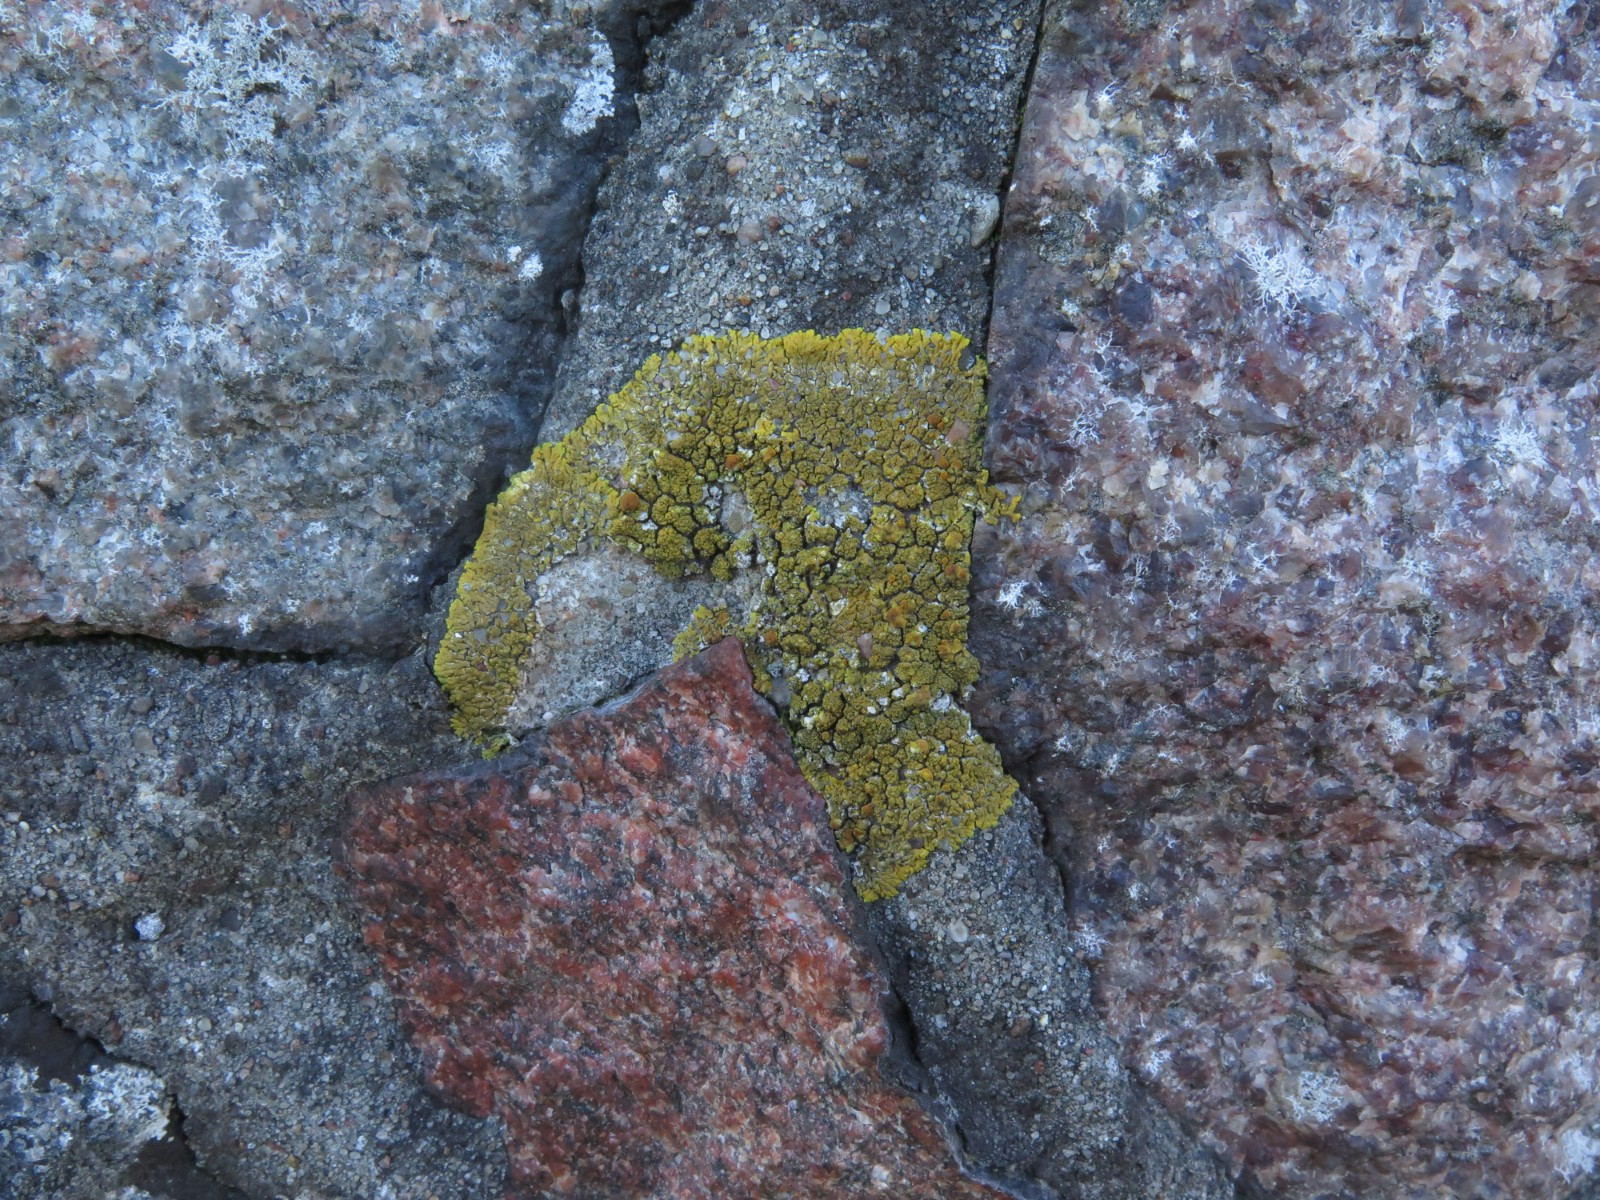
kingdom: Fungi
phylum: Ascomycota
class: Lecanoromycetes
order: Teloschistales
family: Teloschistaceae
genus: Calogaya
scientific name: Calogaya decipiens
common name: knudret orangelav
